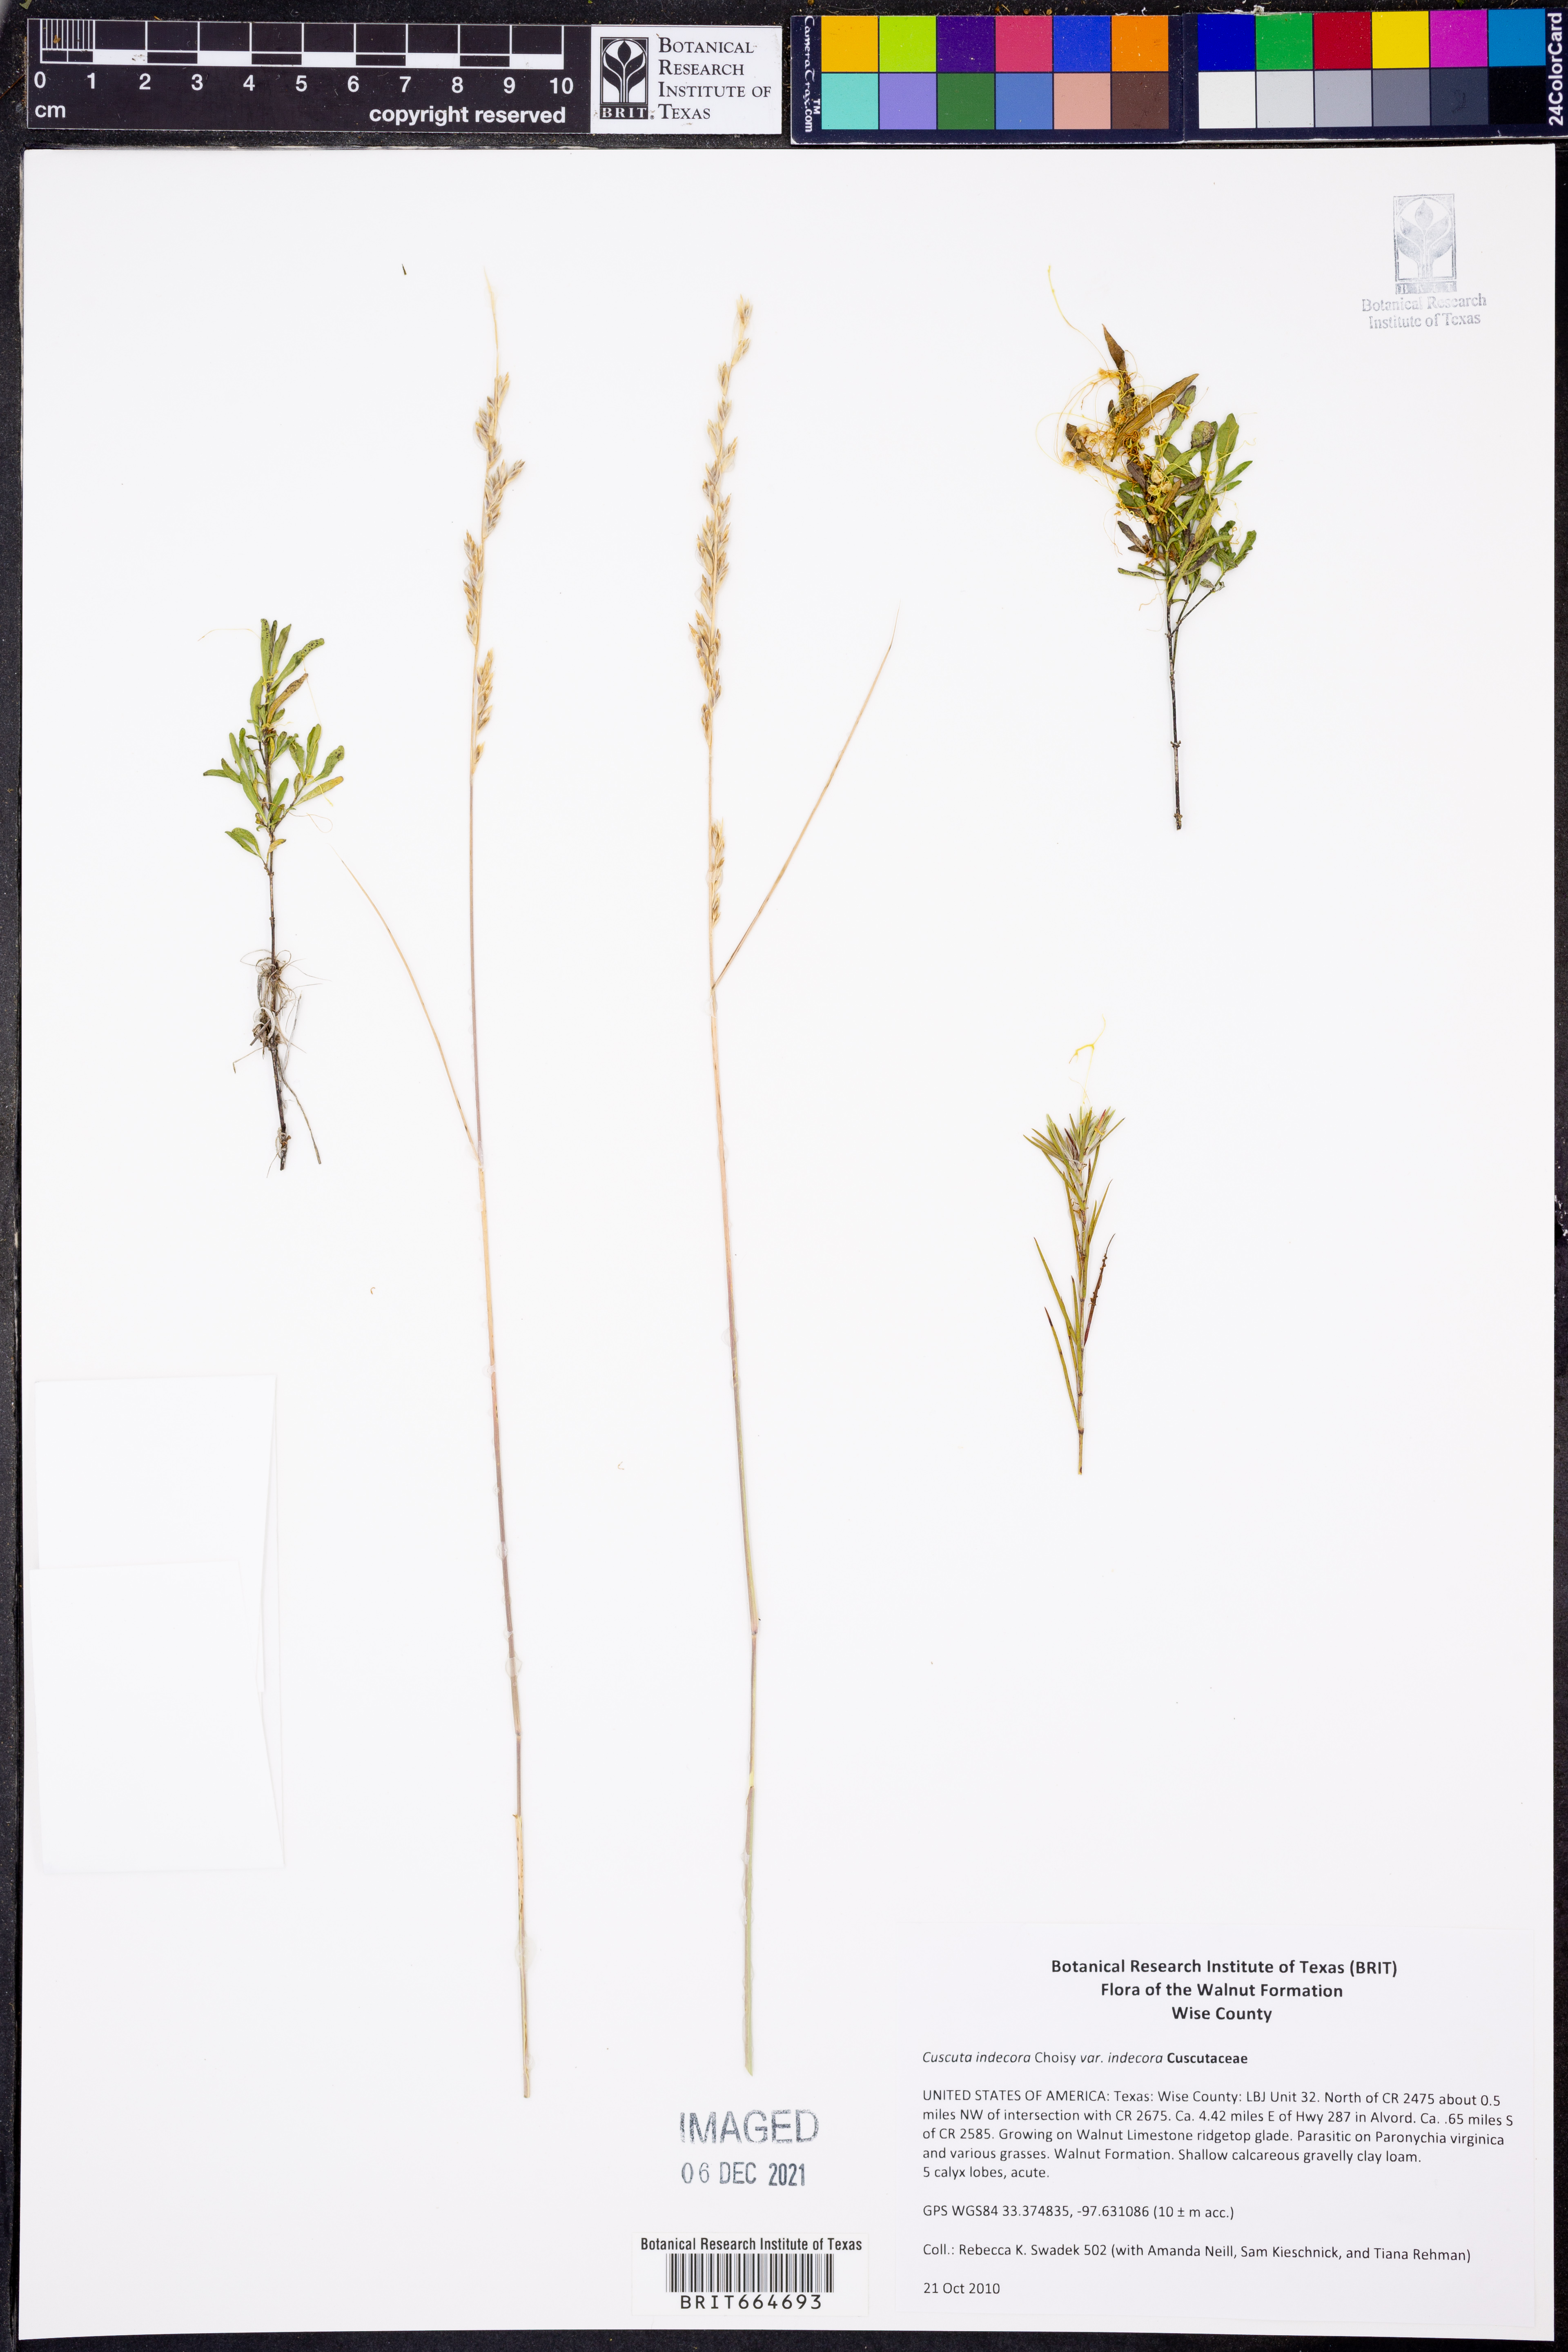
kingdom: Plantae
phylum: Tracheophyta
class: Magnoliopsida
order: Solanales
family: Convolvulaceae
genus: Cuscuta
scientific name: Cuscuta indecora
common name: Large-seed dodder
